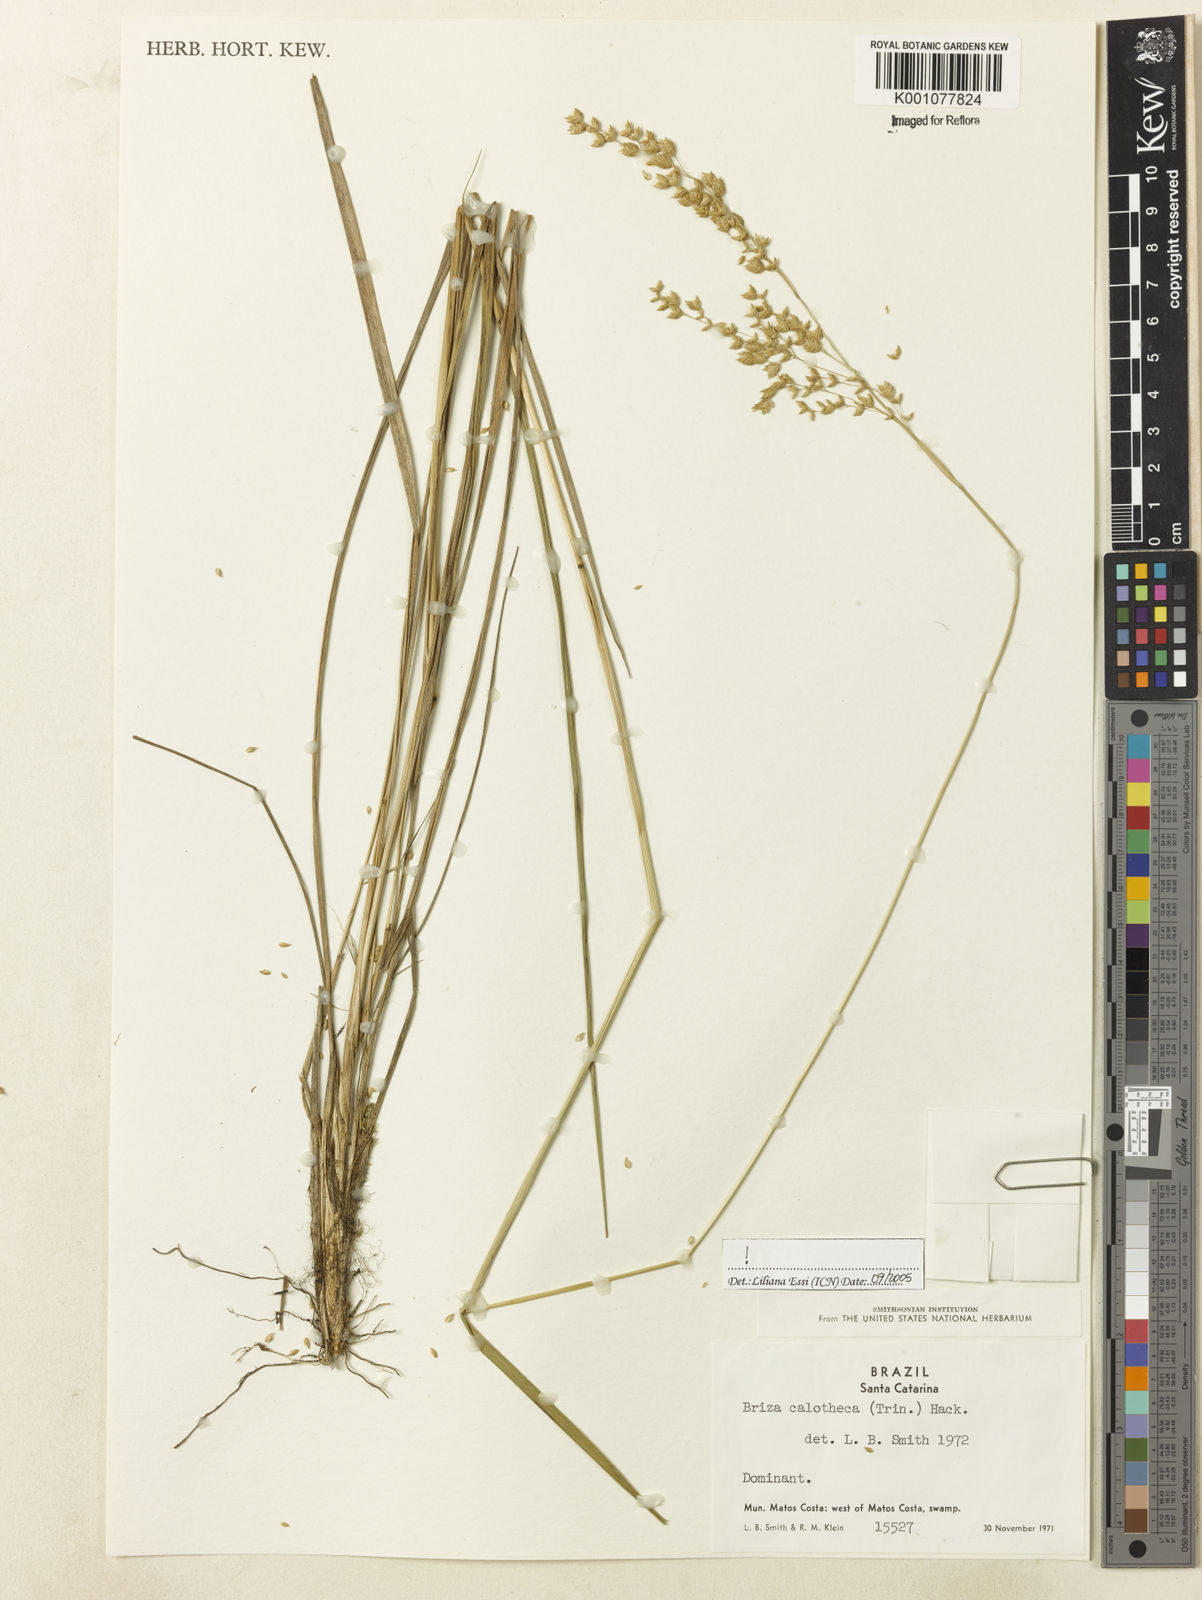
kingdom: Plantae
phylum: Tracheophyta
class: Liliopsida
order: Poales
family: Poaceae
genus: Poidium
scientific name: Poidium calotheca
